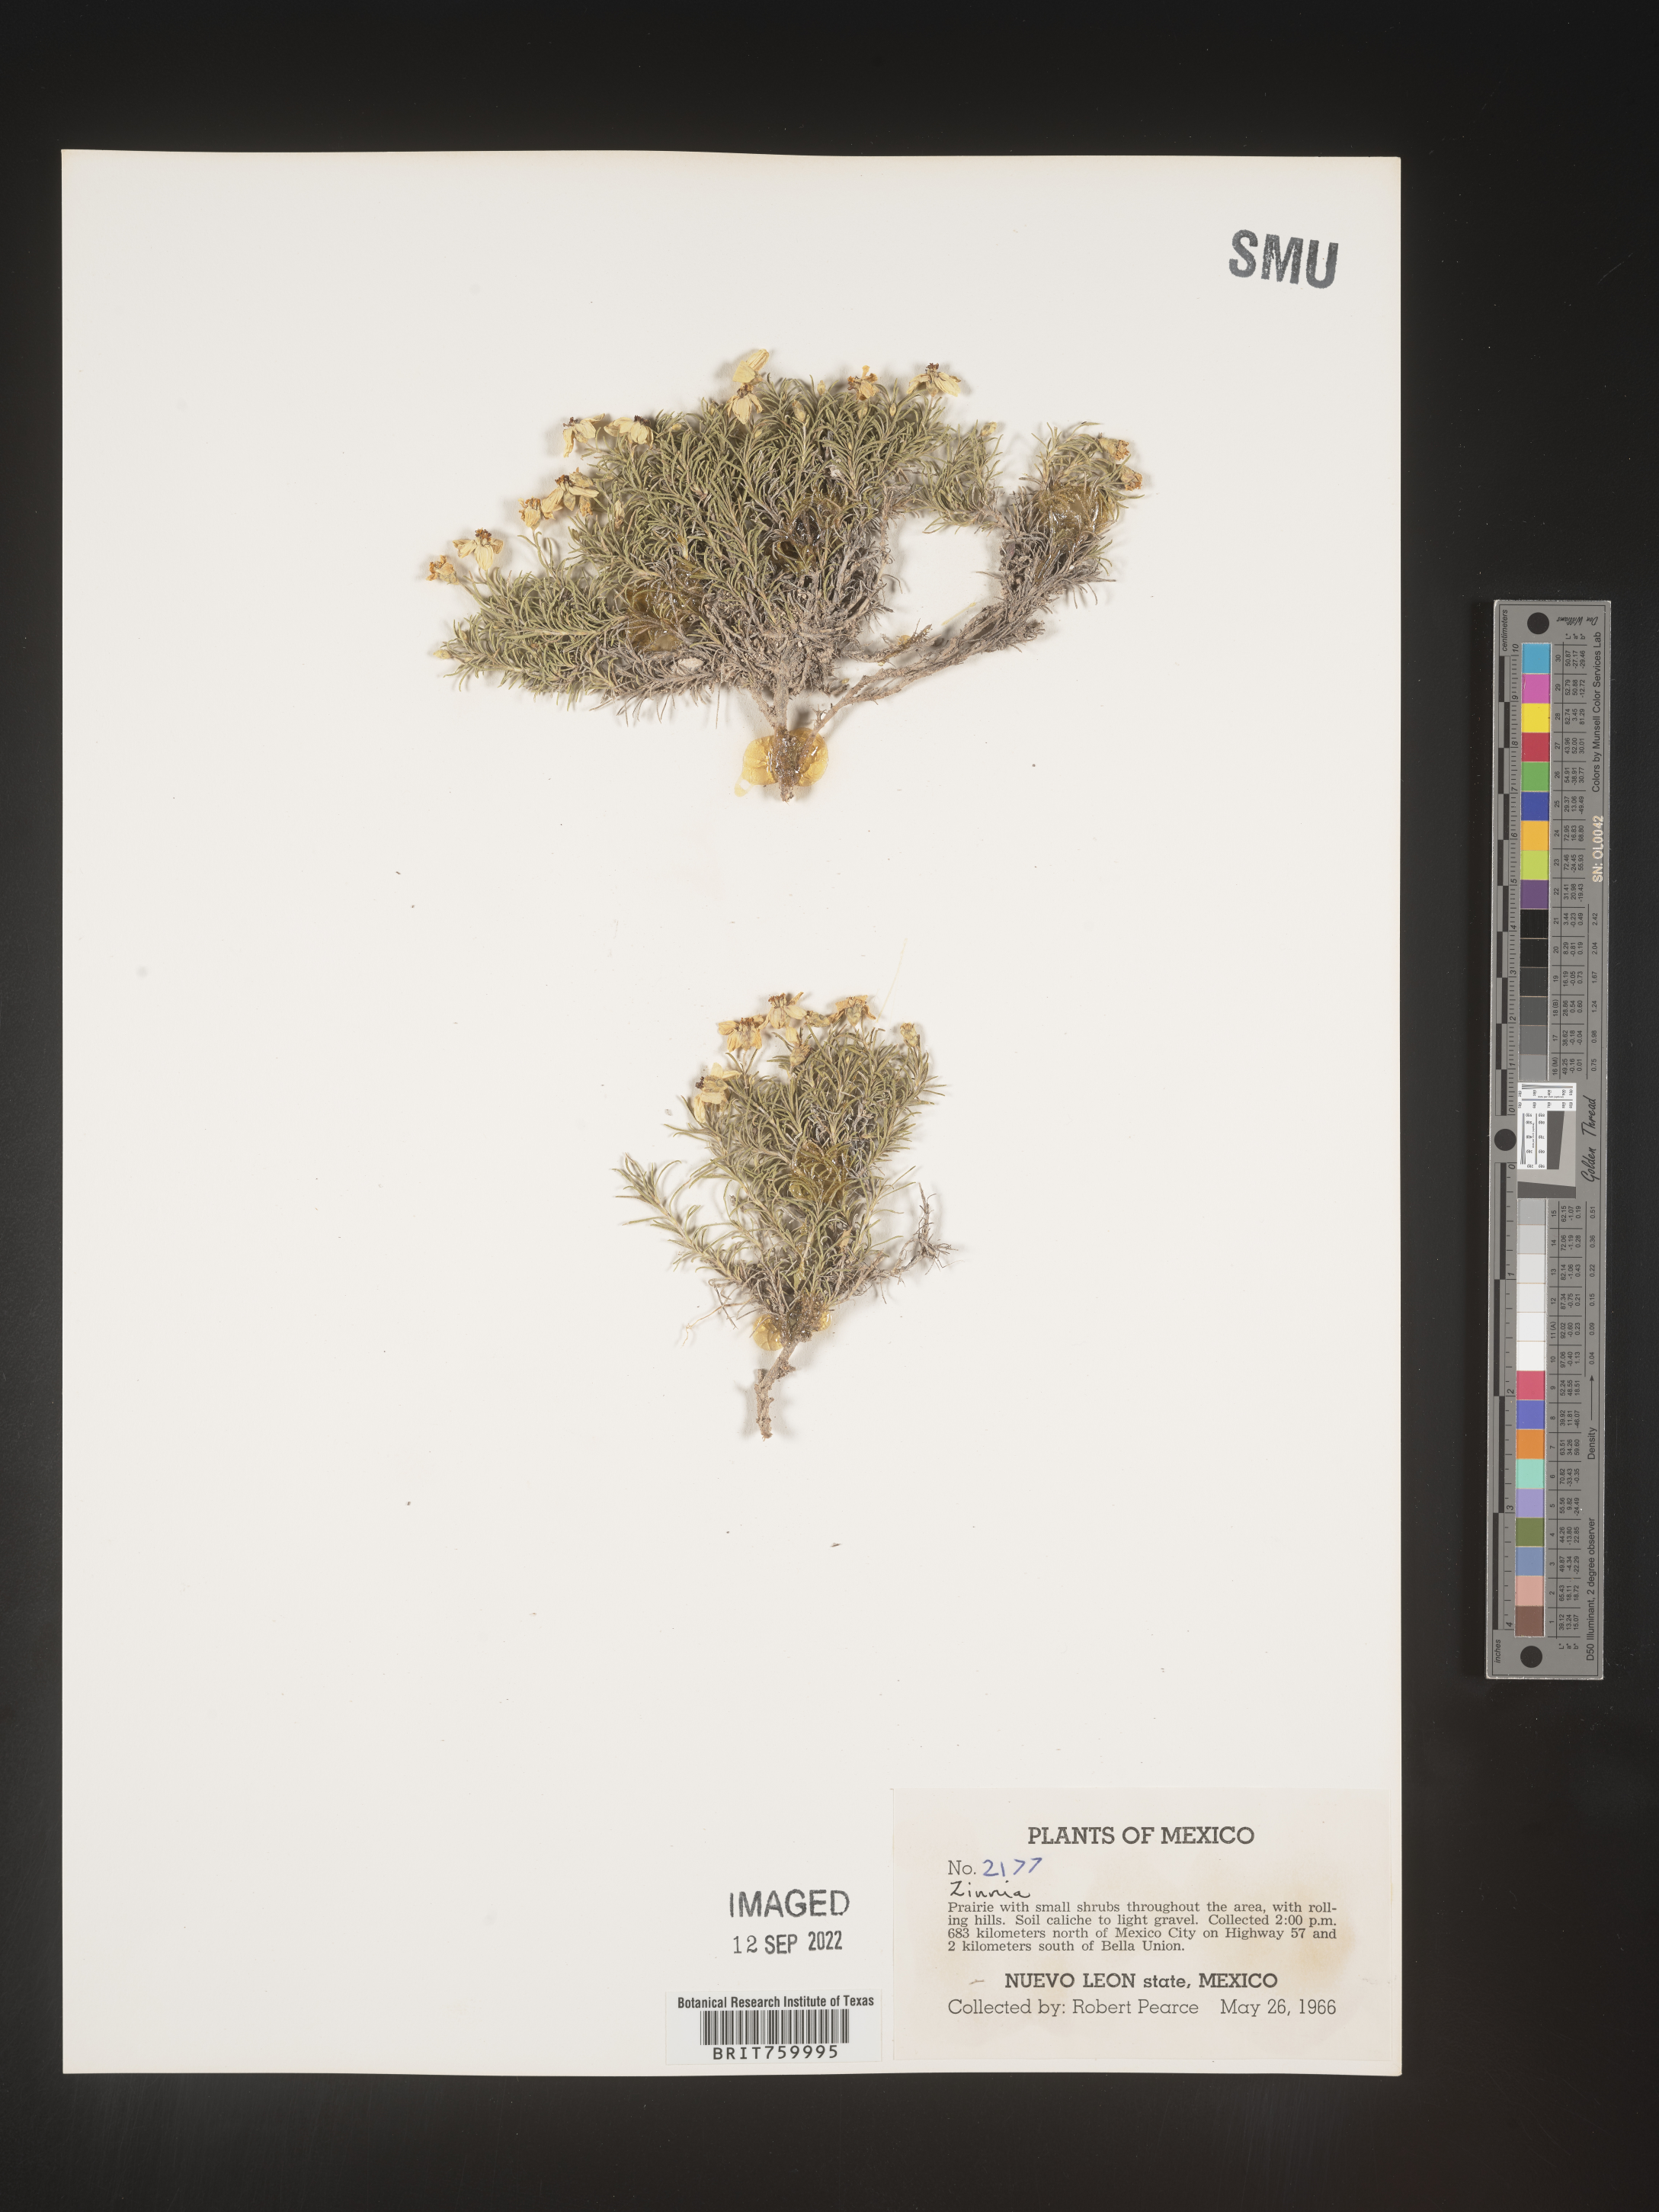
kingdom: Plantae
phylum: Tracheophyta
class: Magnoliopsida
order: Asterales
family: Asteraceae
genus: Zinnia
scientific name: Zinnia
